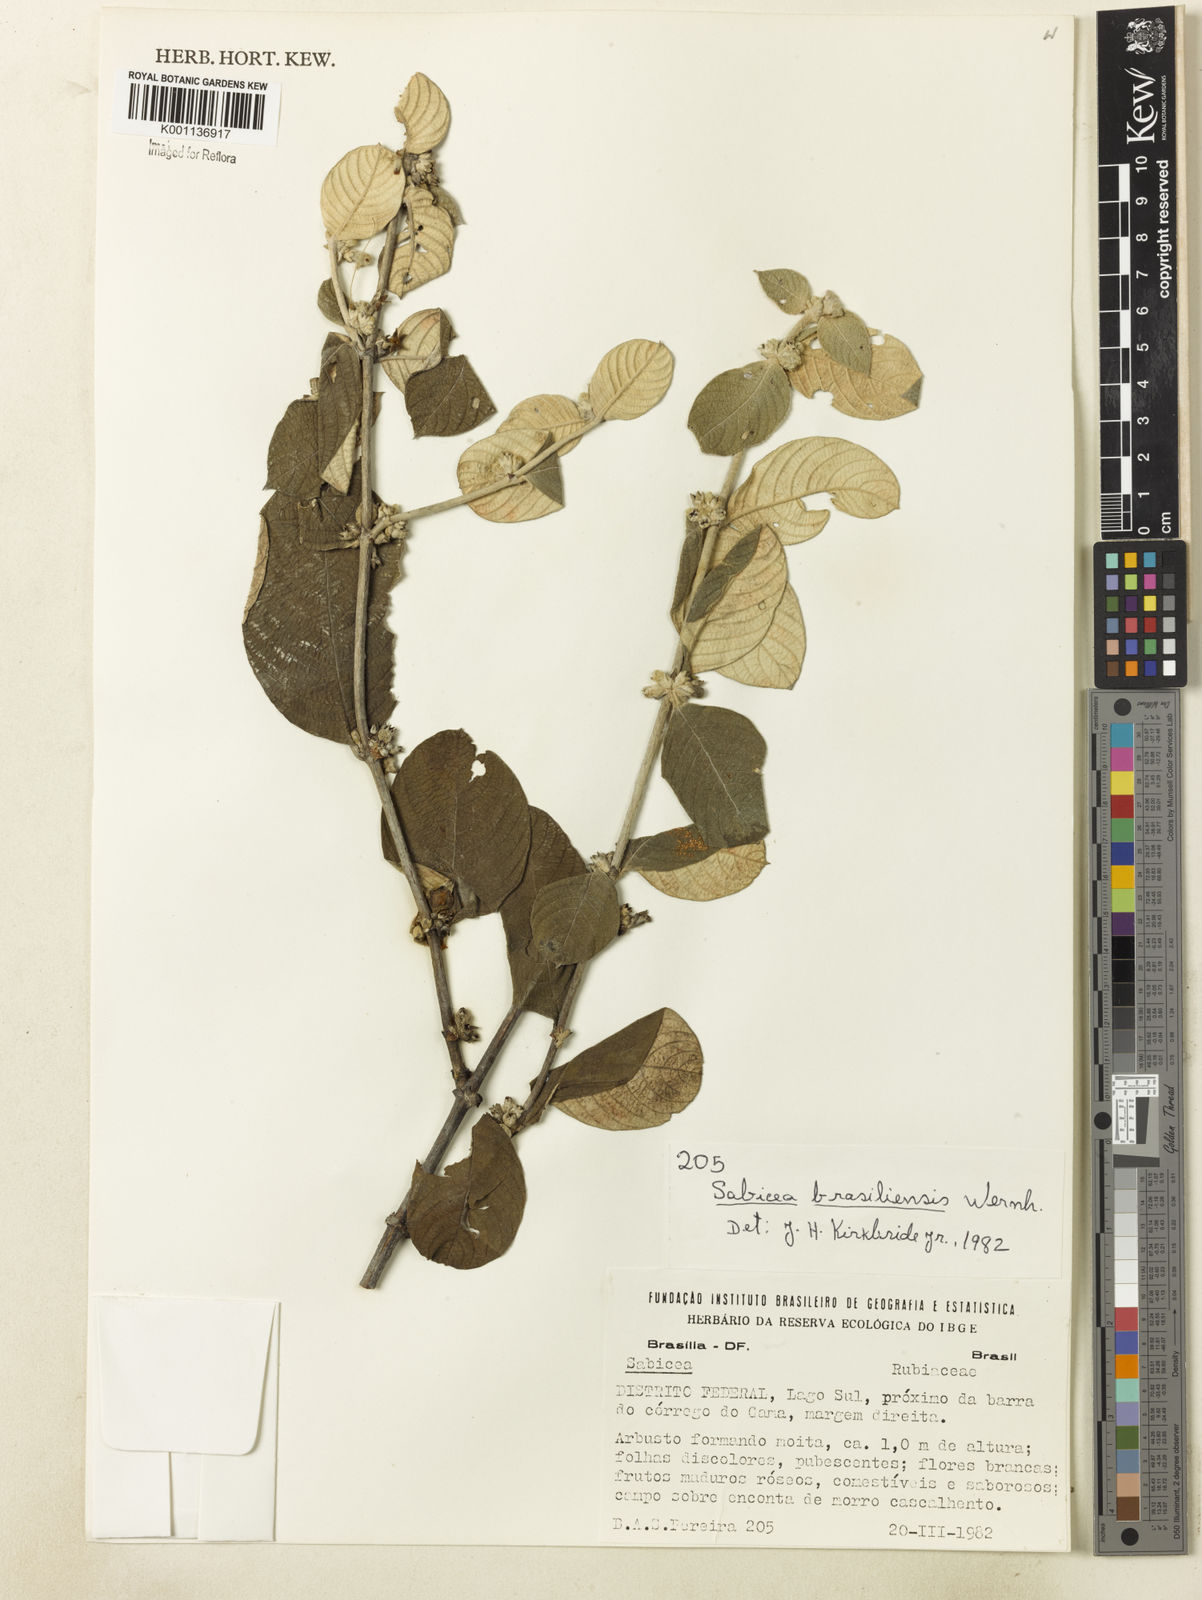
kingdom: Plantae
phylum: Tracheophyta
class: Magnoliopsida
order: Gentianales
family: Rubiaceae
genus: Sabicea
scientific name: Sabicea brasiliensis
